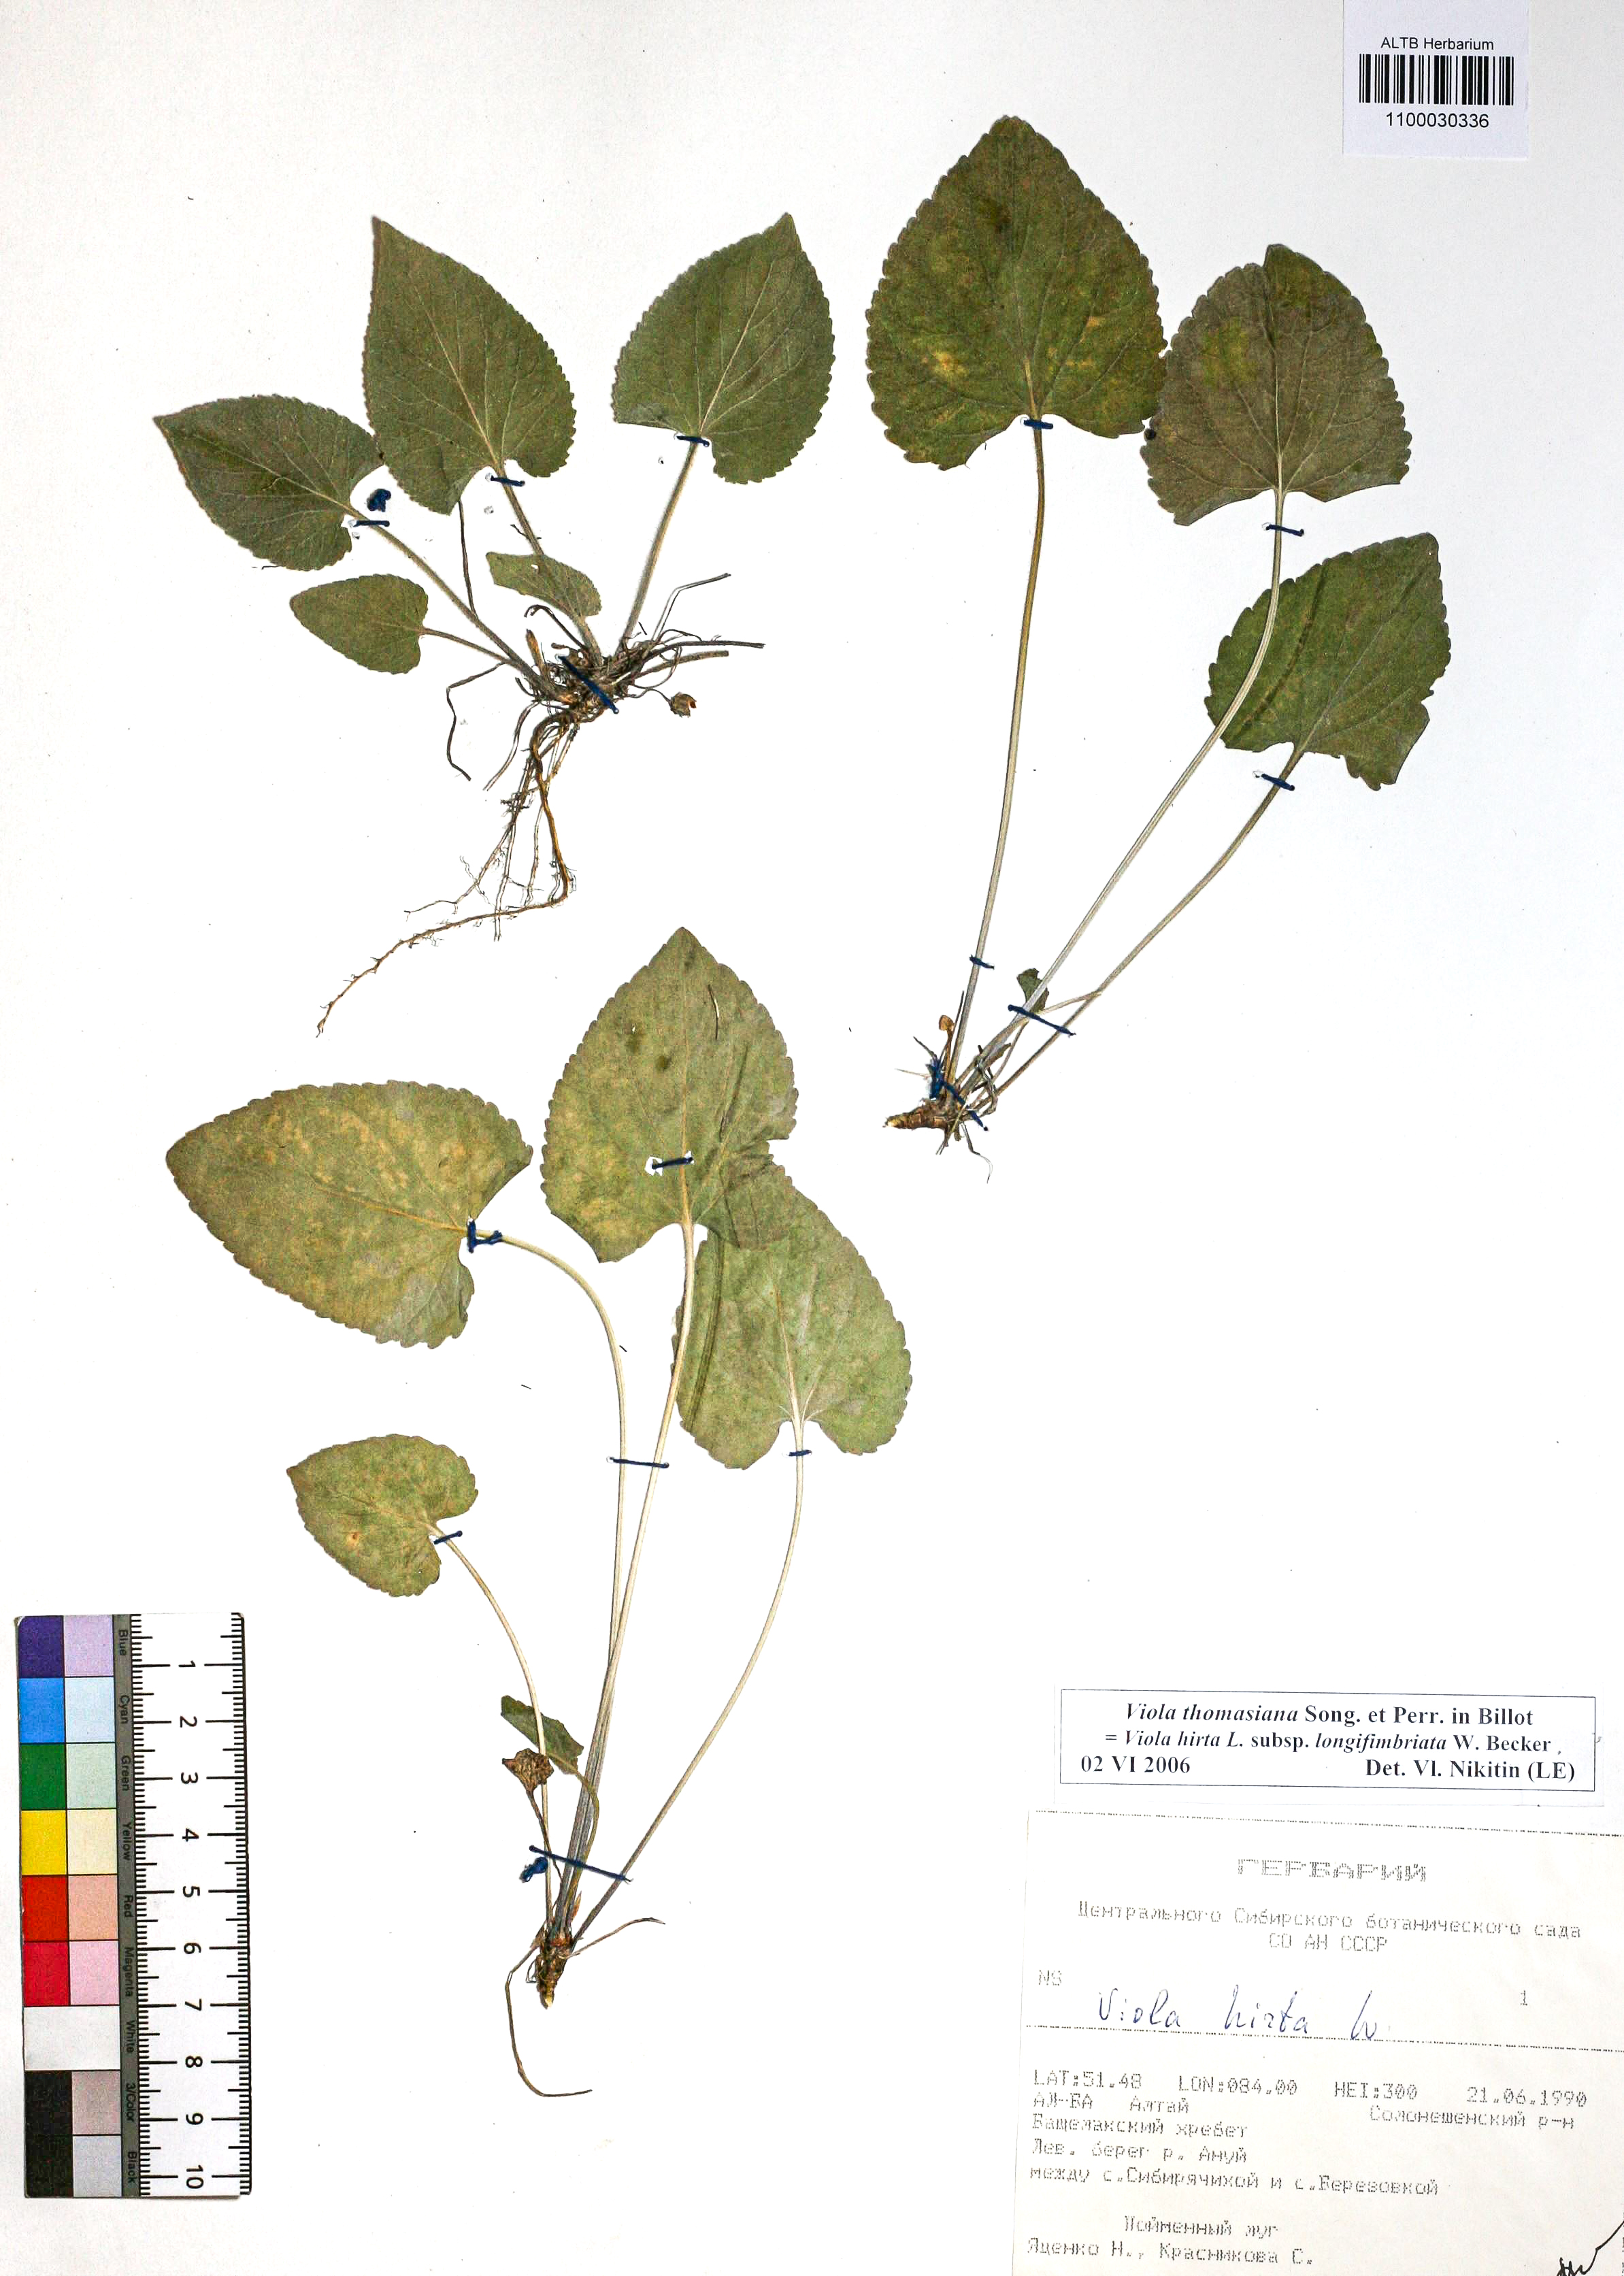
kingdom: Plantae
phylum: Tracheophyta
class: Magnoliopsida
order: Malpighiales
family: Violaceae
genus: Viola
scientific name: Viola thomasiana
